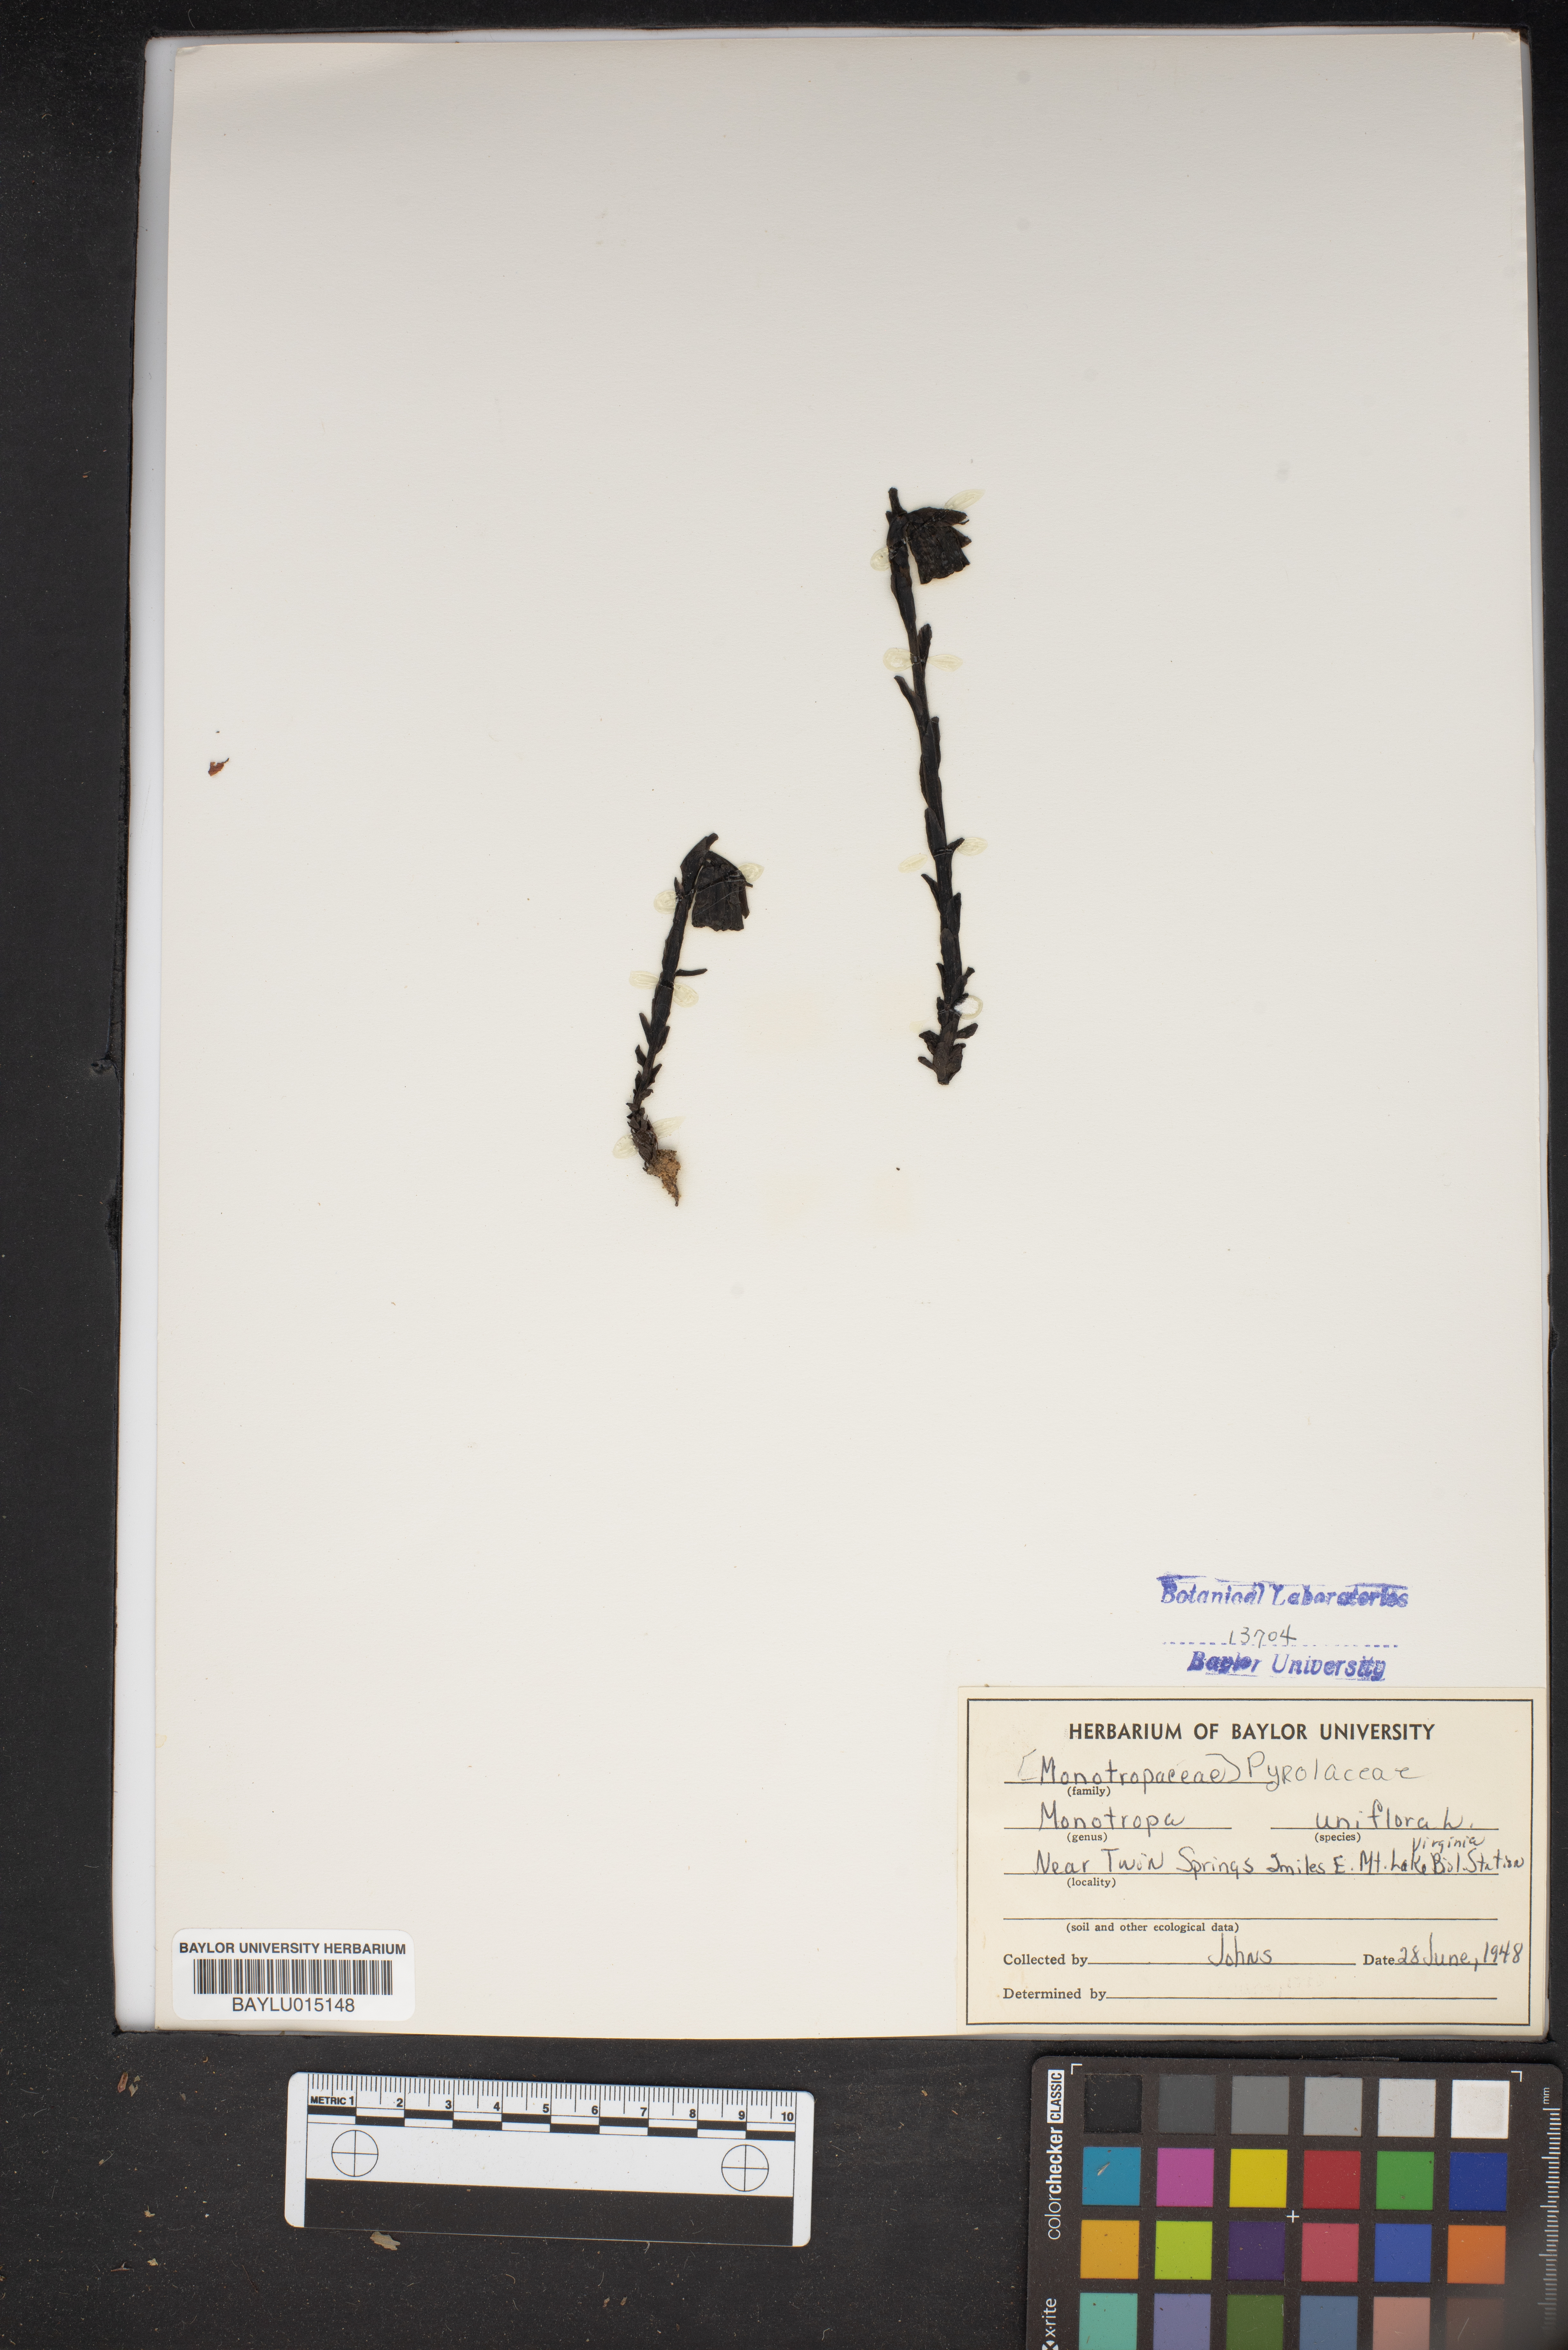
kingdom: Plantae
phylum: Tracheophyta
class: Magnoliopsida
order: Ericales
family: Ericaceae
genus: Monotropa
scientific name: Monotropa uniflora
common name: Convulsion root
